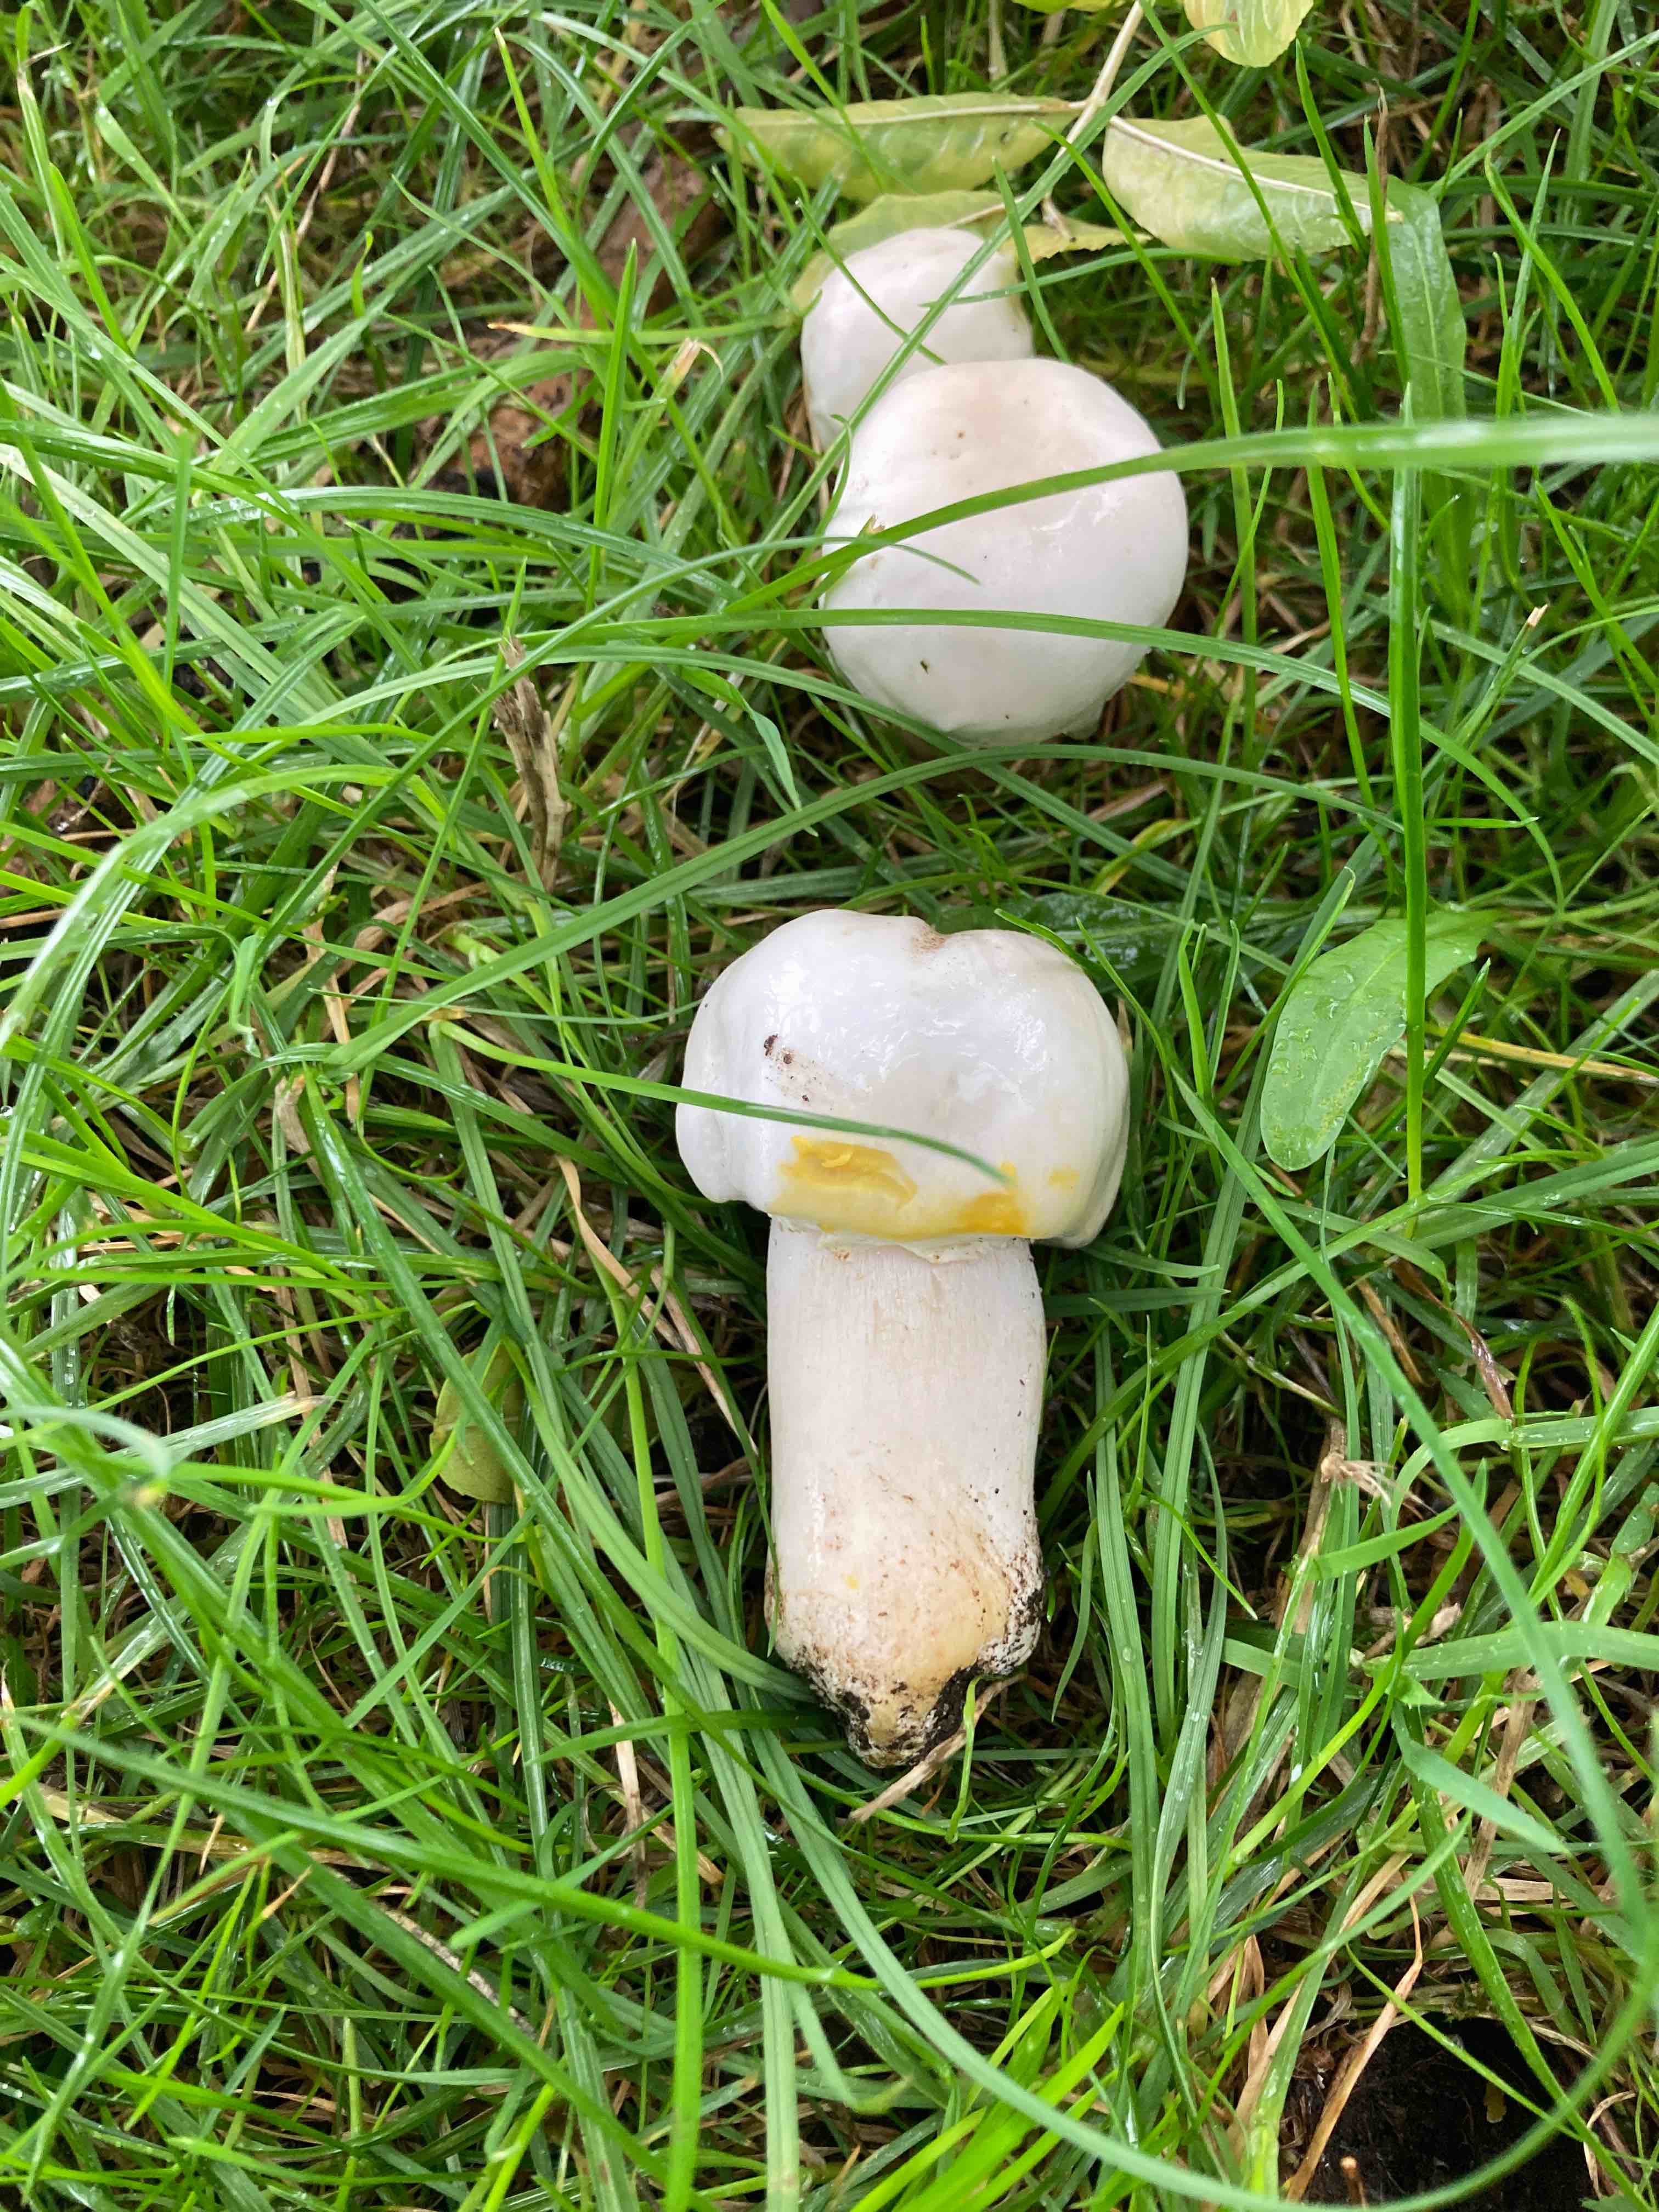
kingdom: Fungi
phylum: Basidiomycota
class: Agaricomycetes
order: Agaricales
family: Agaricaceae
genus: Agaricus
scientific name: Agaricus xanthodermus
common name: karbol-champignon
